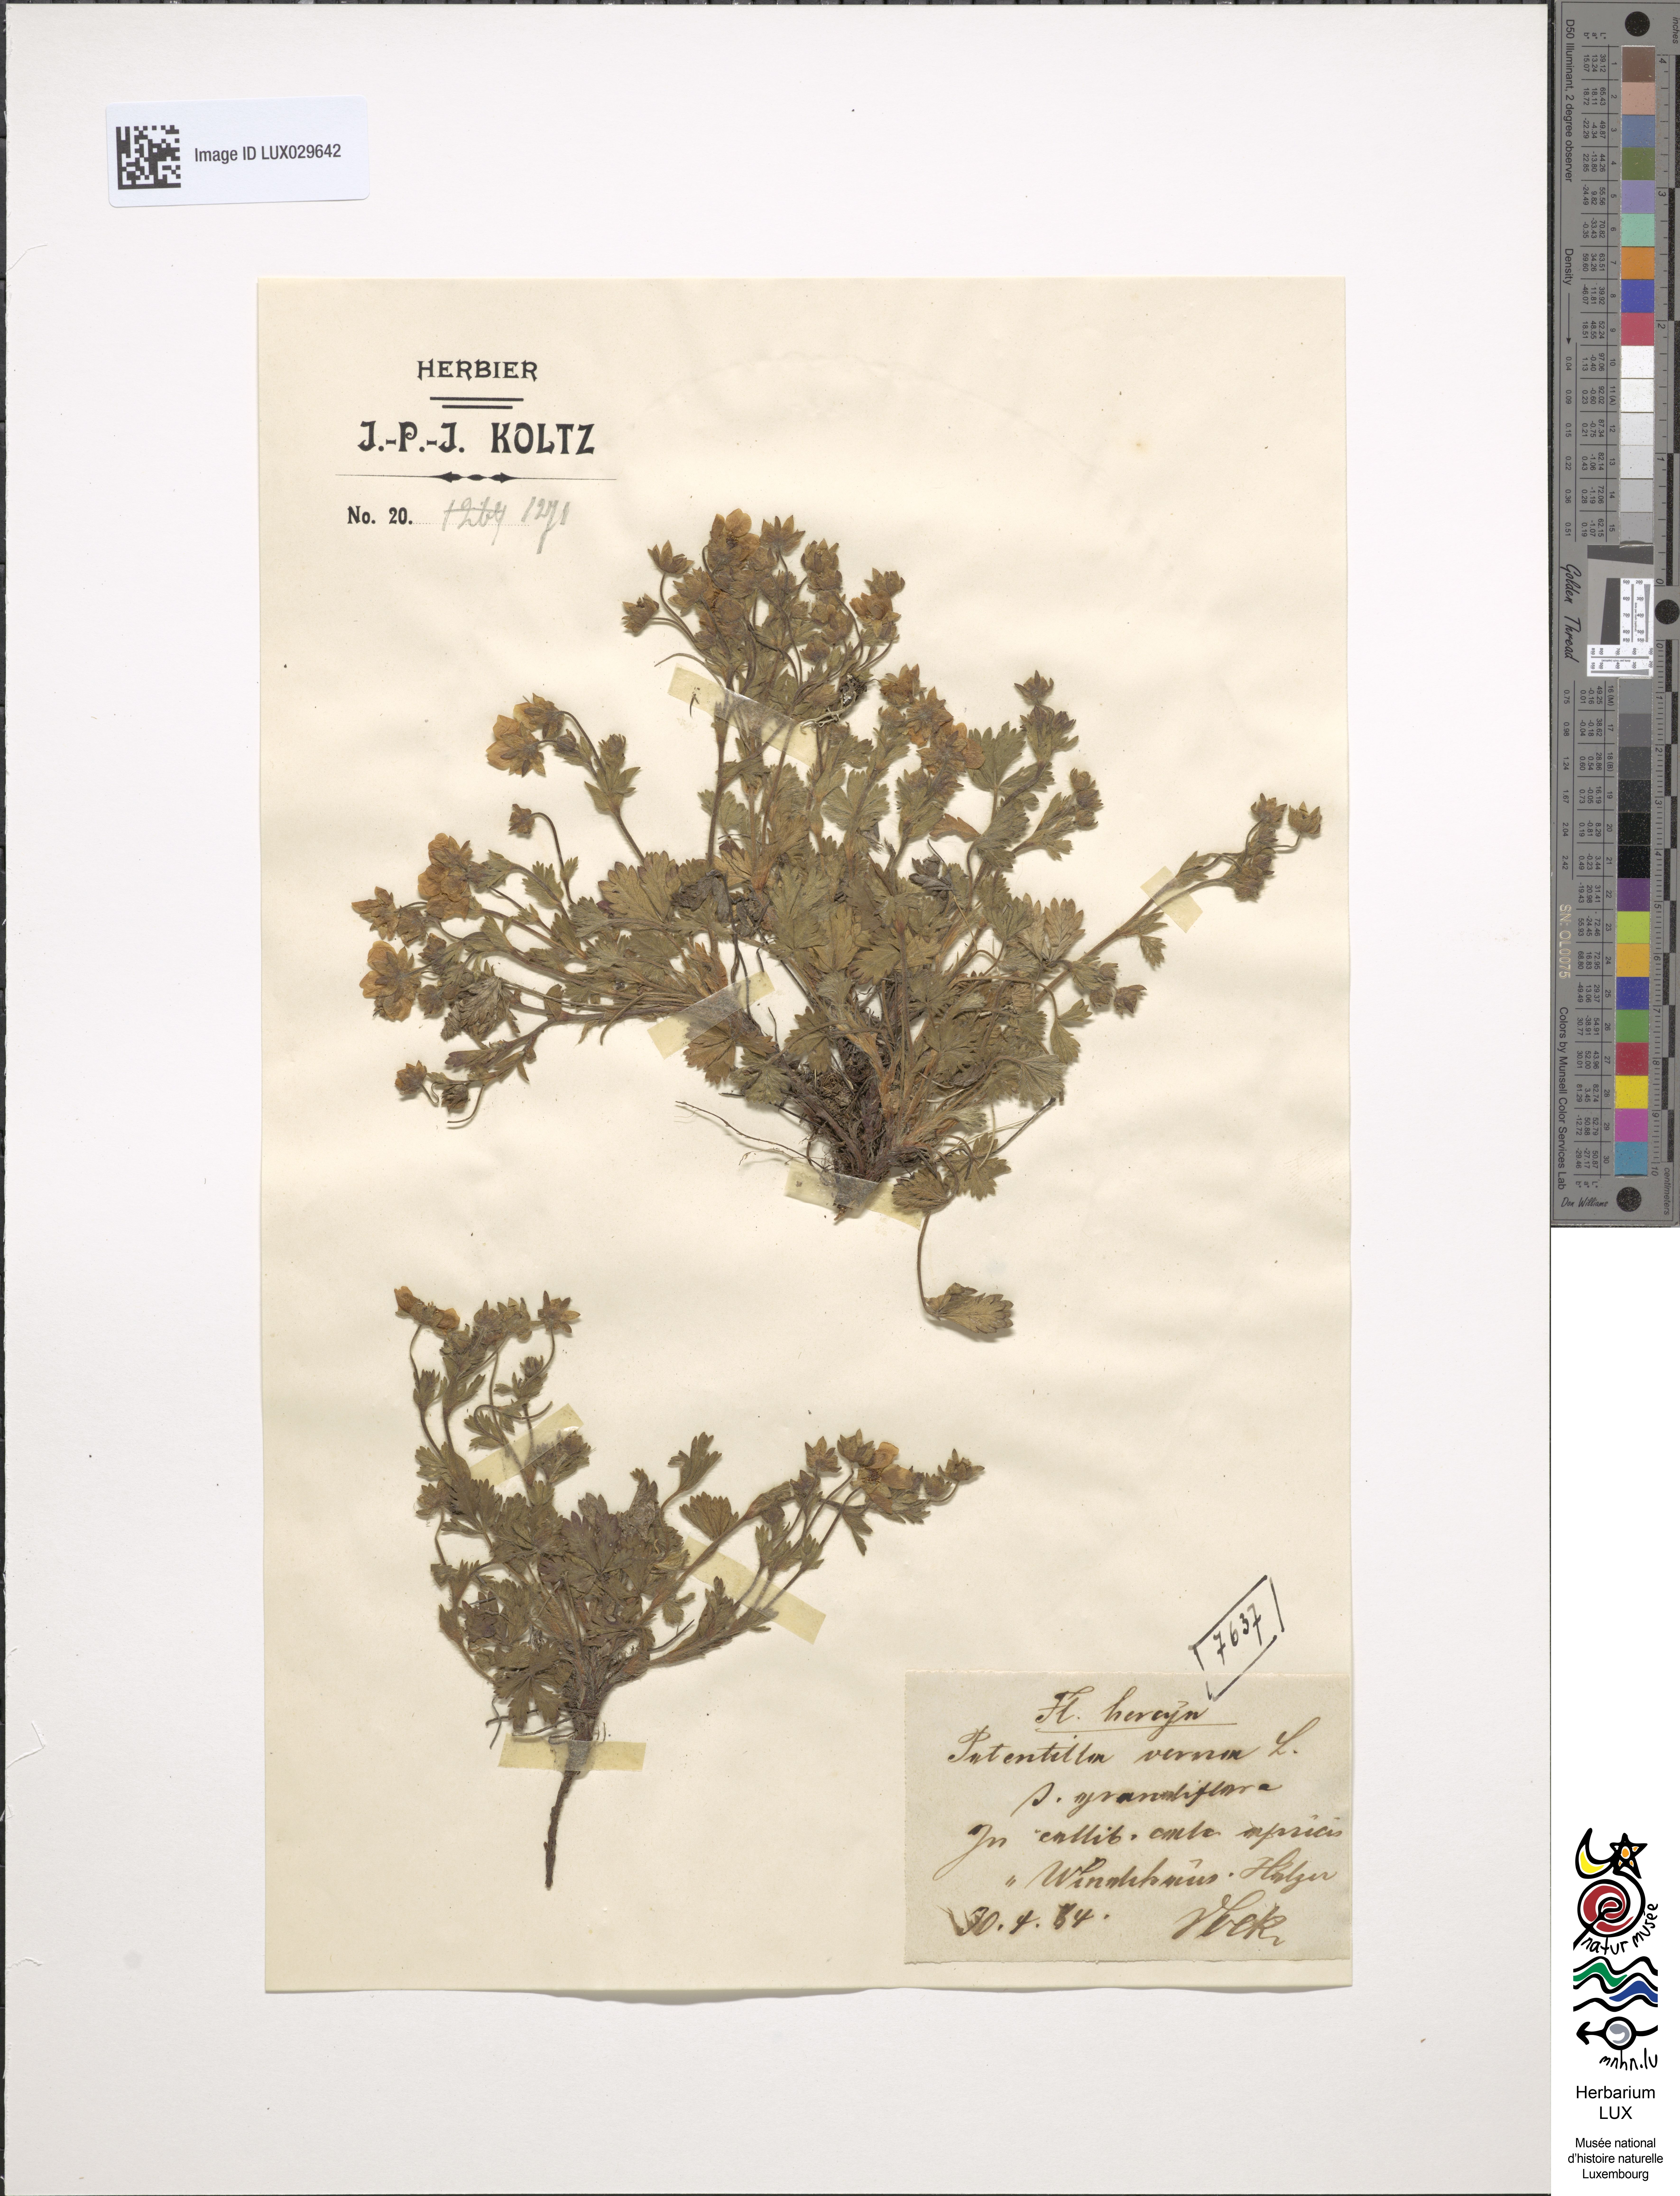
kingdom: Plantae
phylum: Tracheophyta
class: Magnoliopsida
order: Rosales
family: Rosaceae
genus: Potentilla
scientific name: Potentilla verna
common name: Spring cinquefoil
